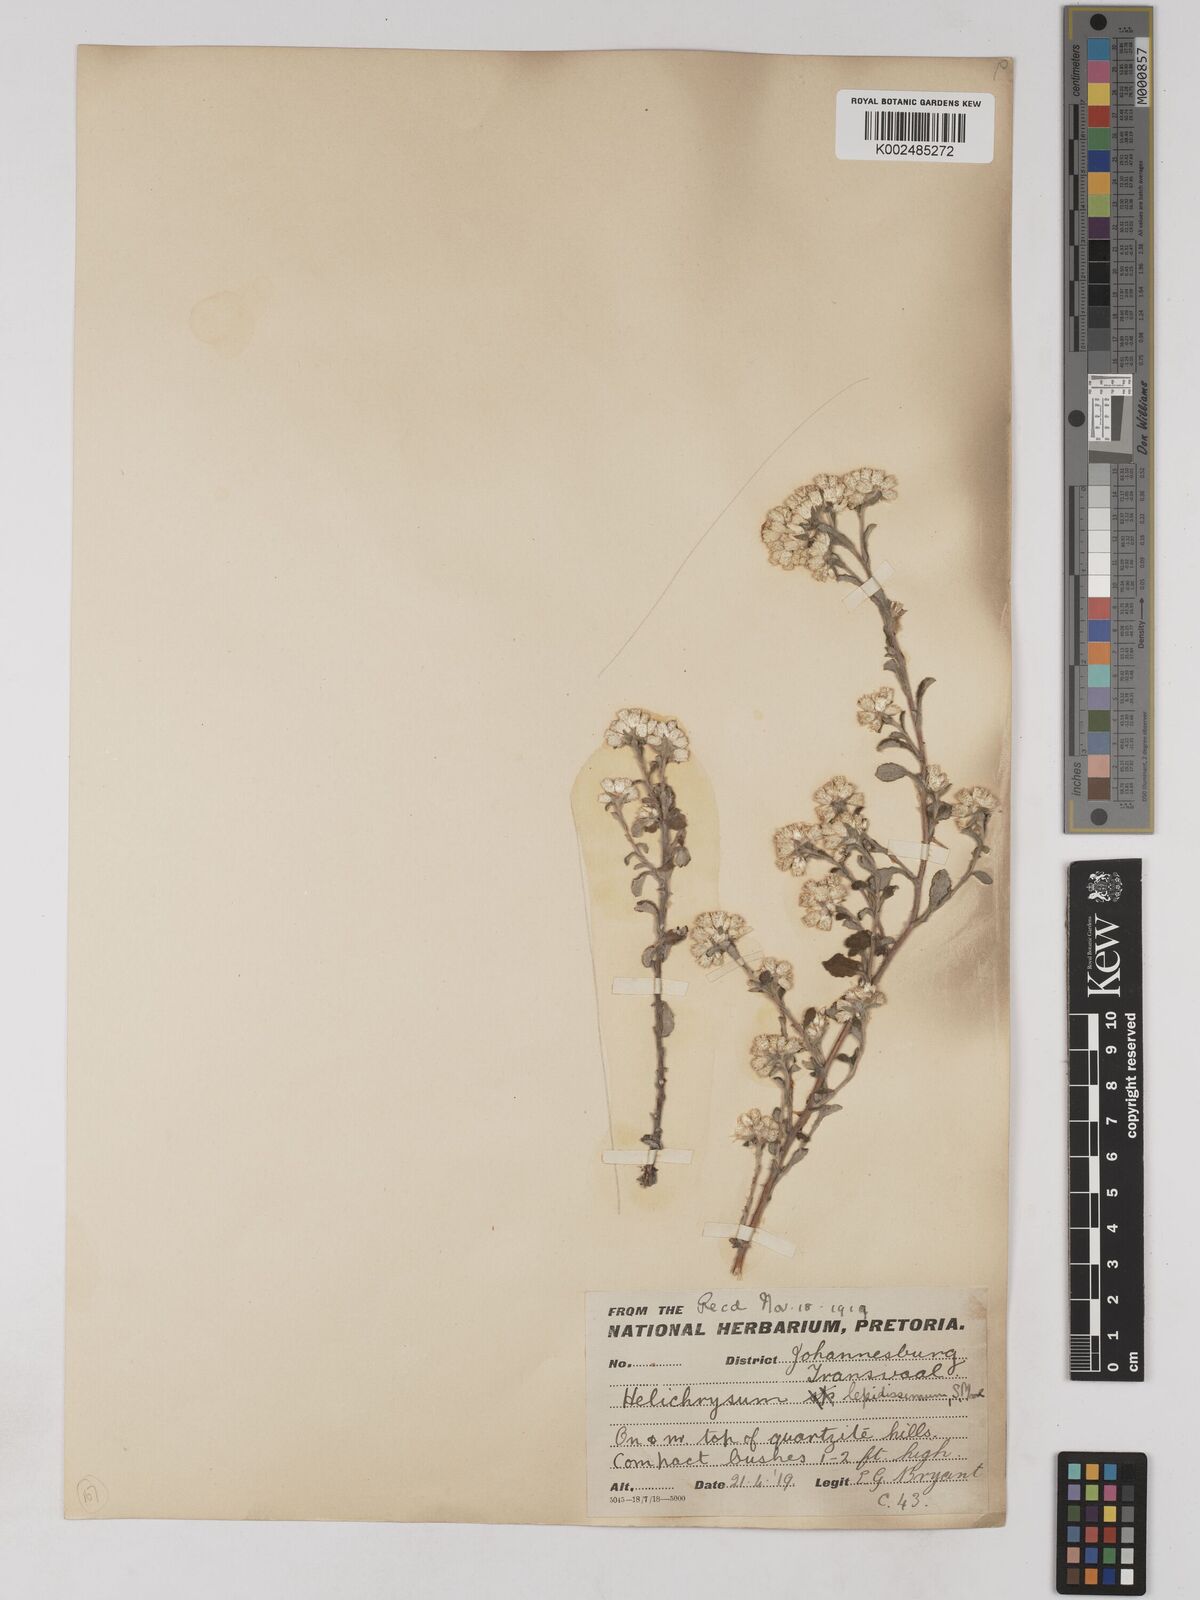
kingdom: Plantae
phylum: Tracheophyta
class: Magnoliopsida
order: Asterales
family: Asteraceae
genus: Helichrysum
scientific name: Helichrysum lepidissimum
